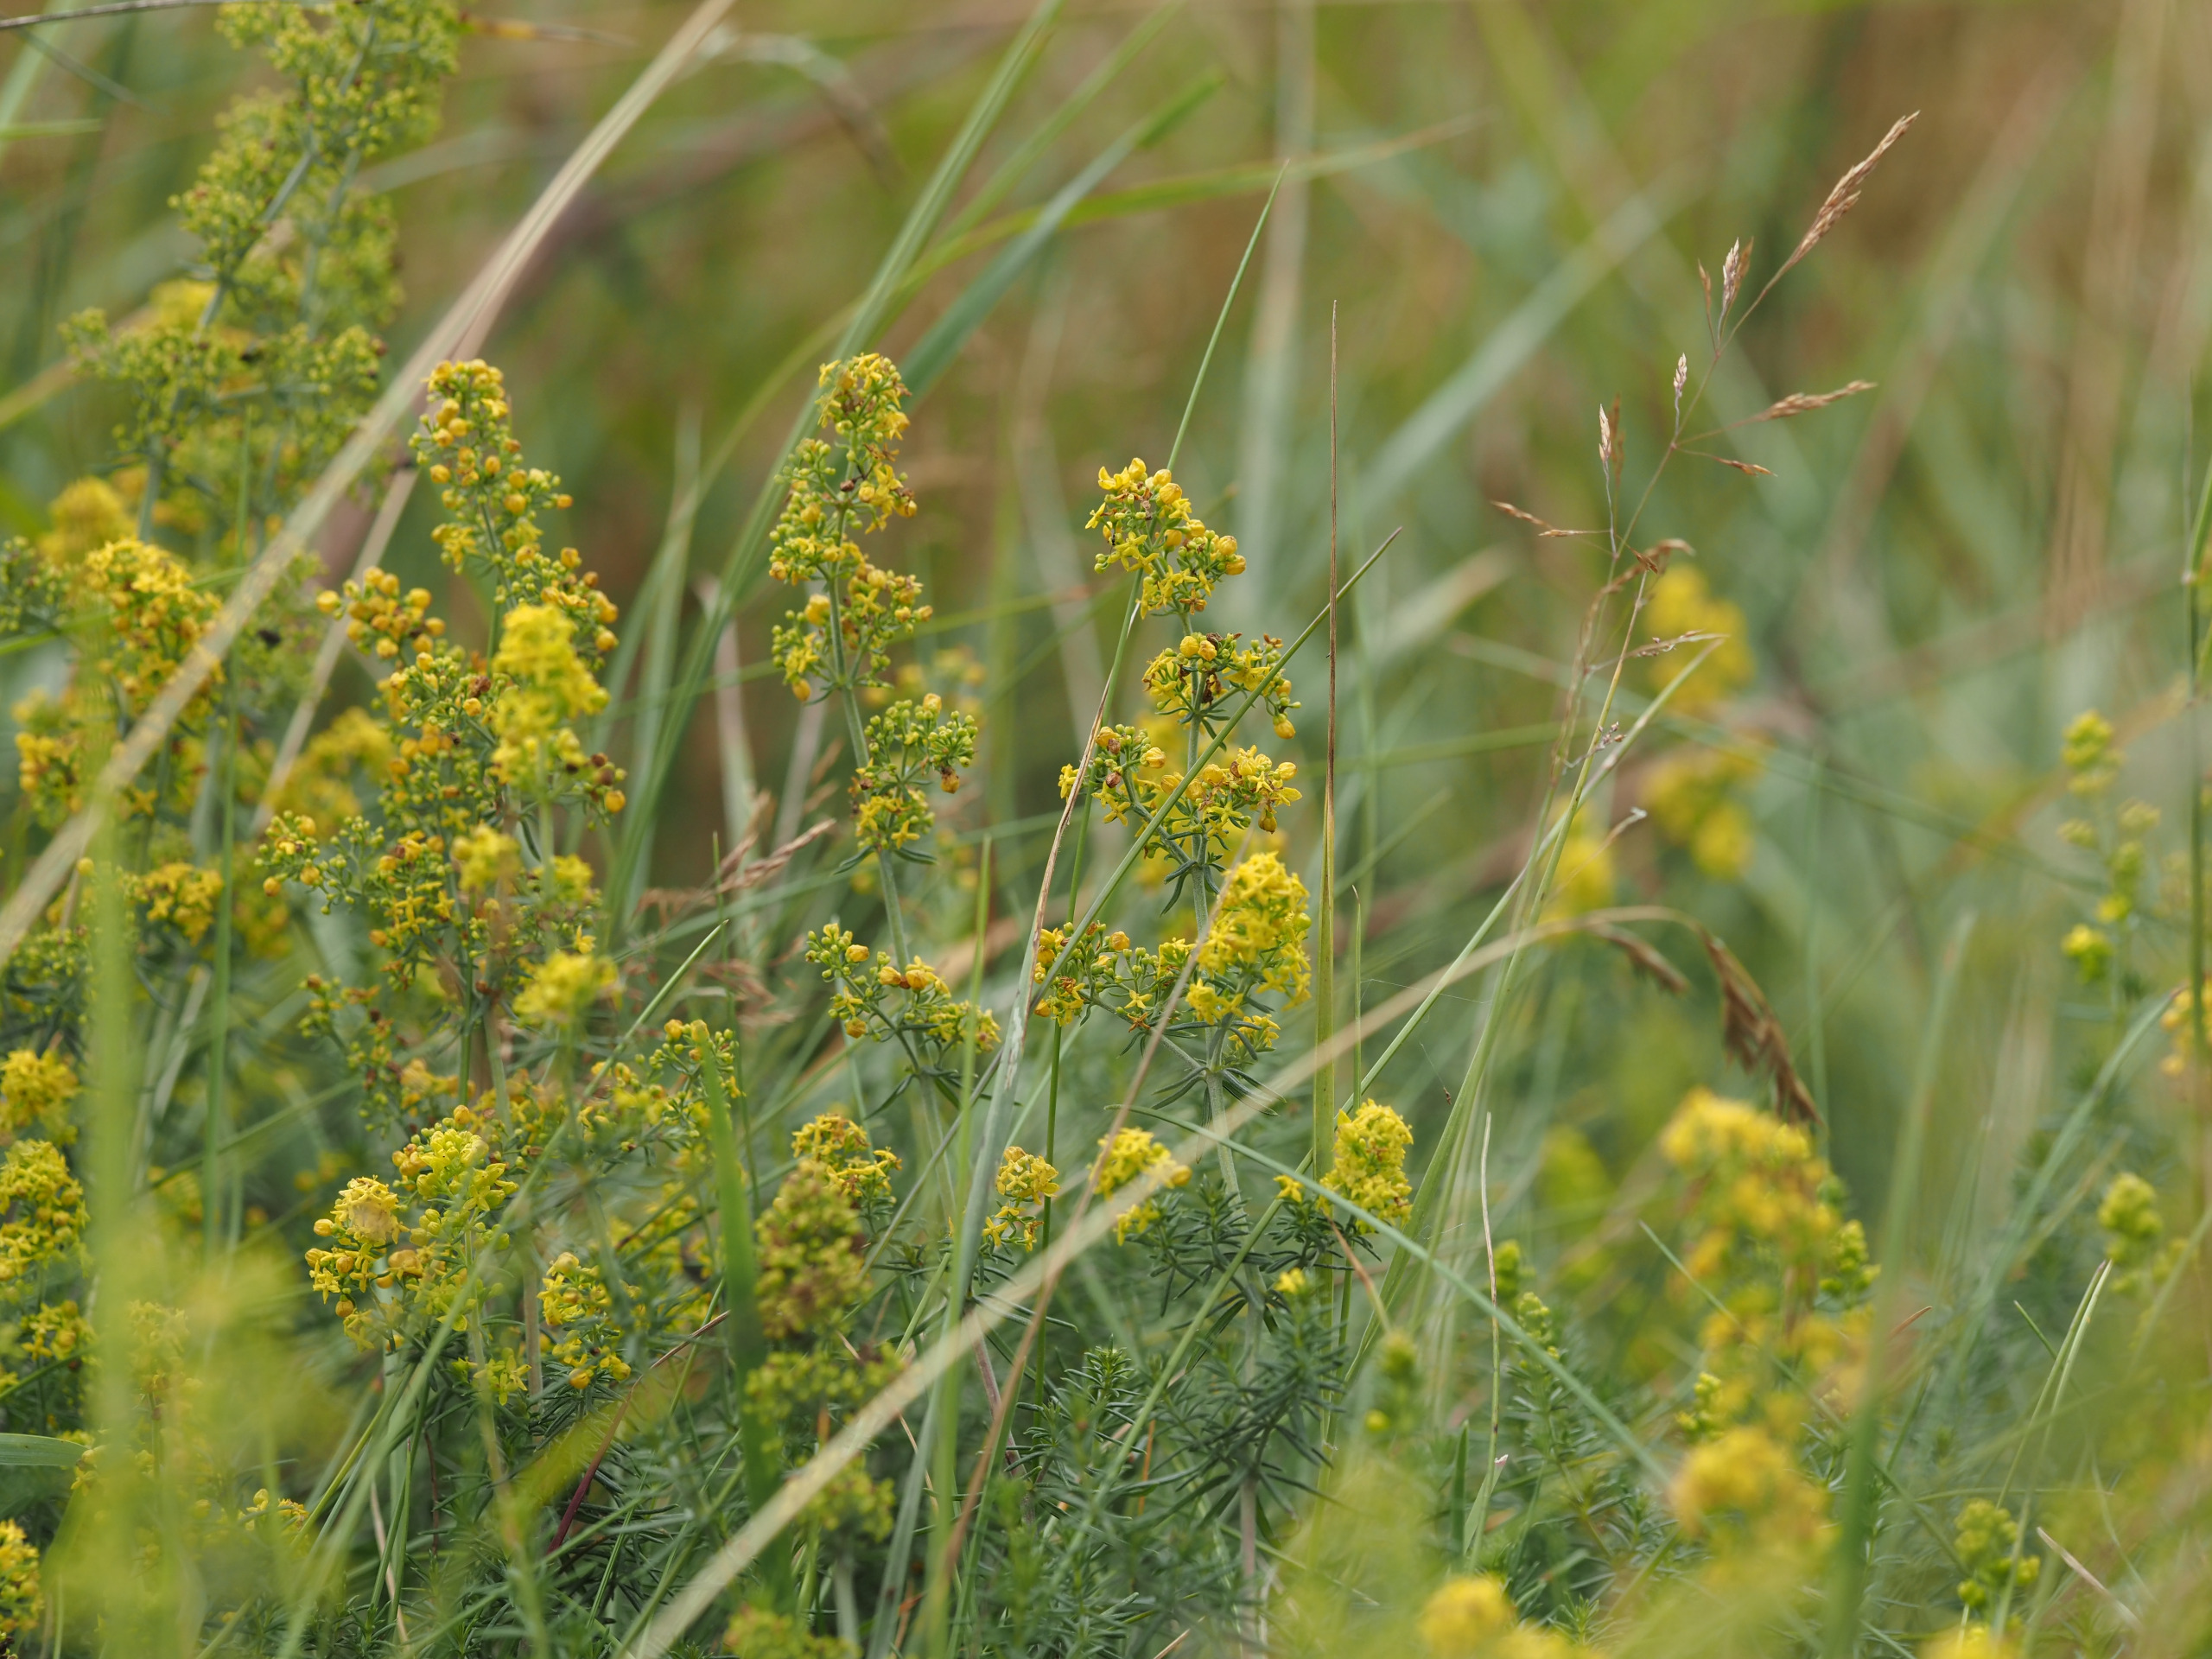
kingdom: Plantae
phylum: Tracheophyta
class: Magnoliopsida
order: Gentianales
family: Rubiaceae
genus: Galium
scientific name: Galium verum
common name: Gul snerre
